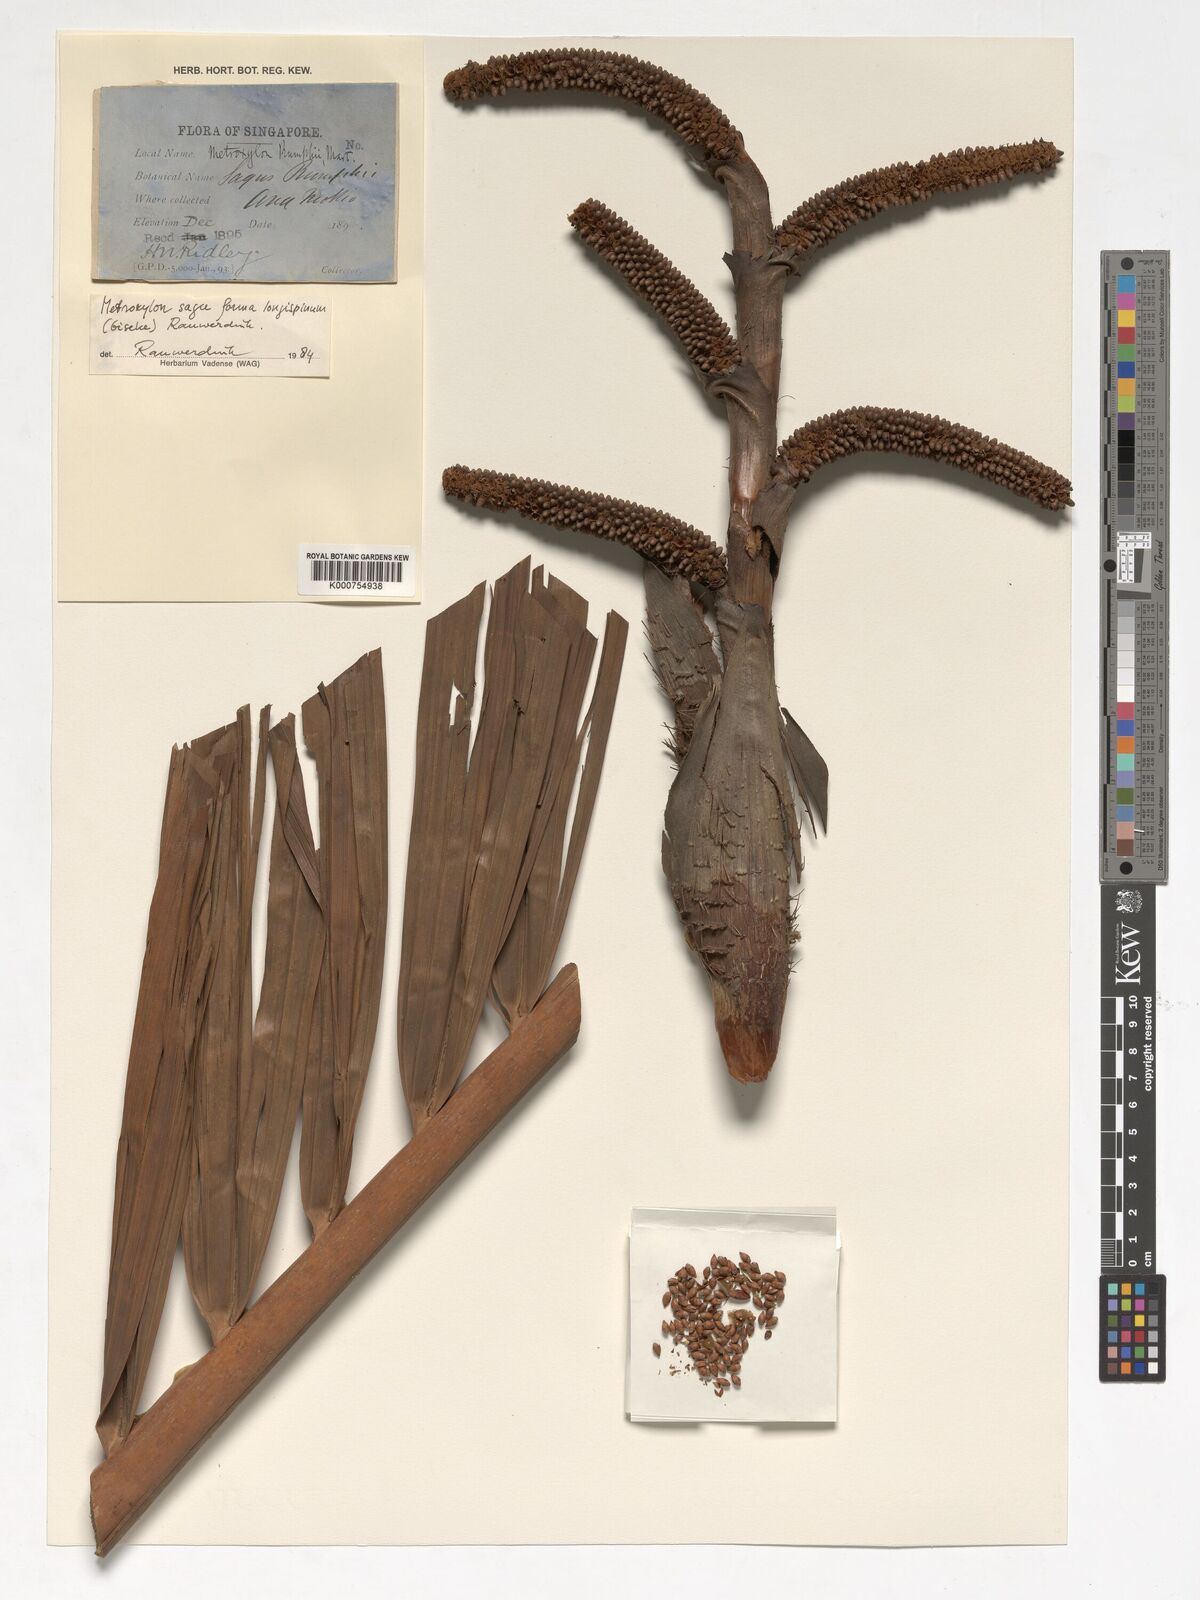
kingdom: Plantae
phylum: Tracheophyta
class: Liliopsida
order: Arecales
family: Arecaceae
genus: Metroxylon
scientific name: Metroxylon sagu
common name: Sago palm
